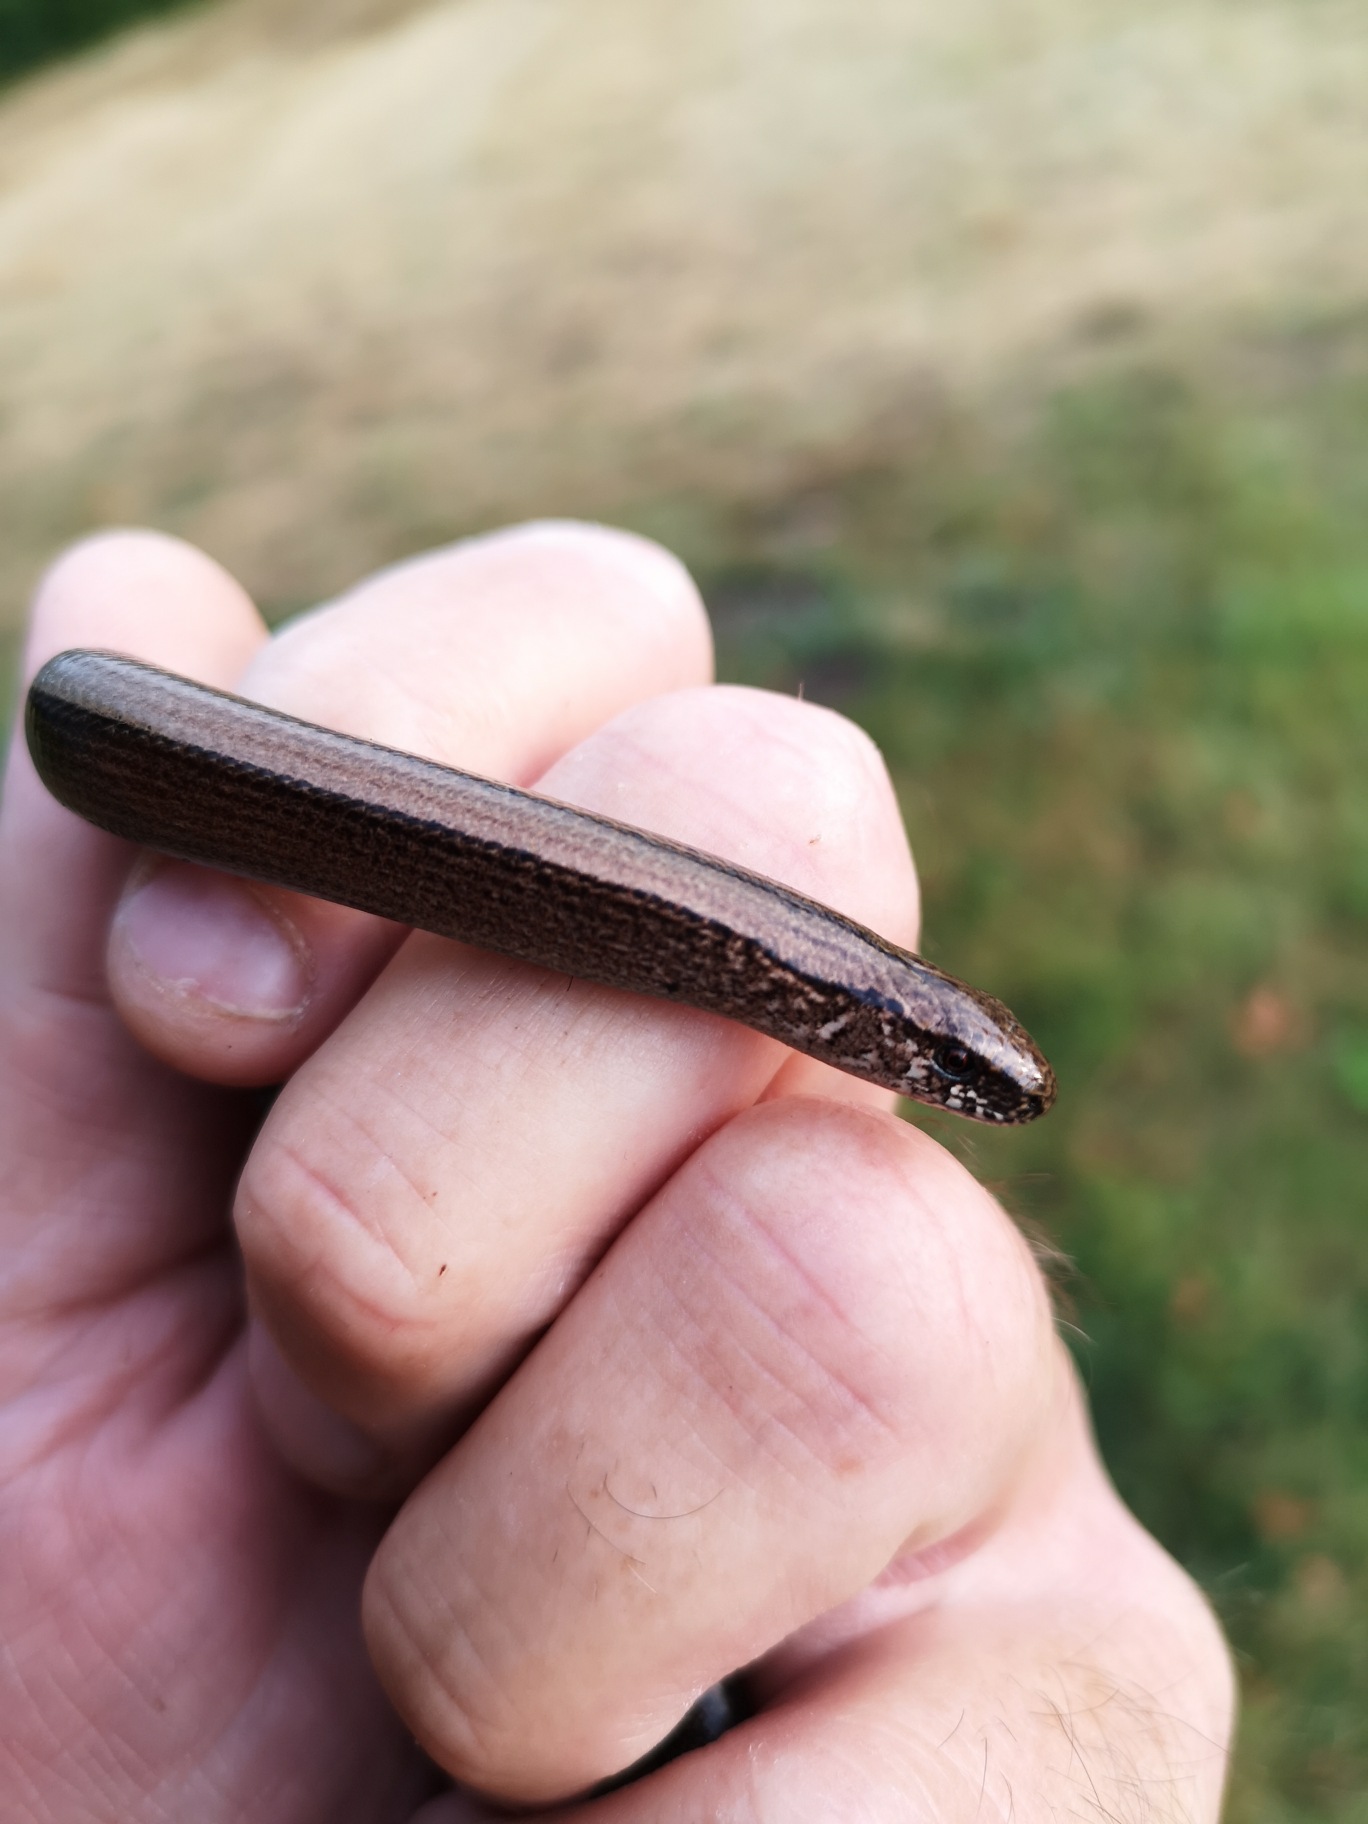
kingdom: Animalia
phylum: Chordata
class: Squamata
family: Anguidae
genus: Anguis
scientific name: Anguis fragilis
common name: Stålorm
